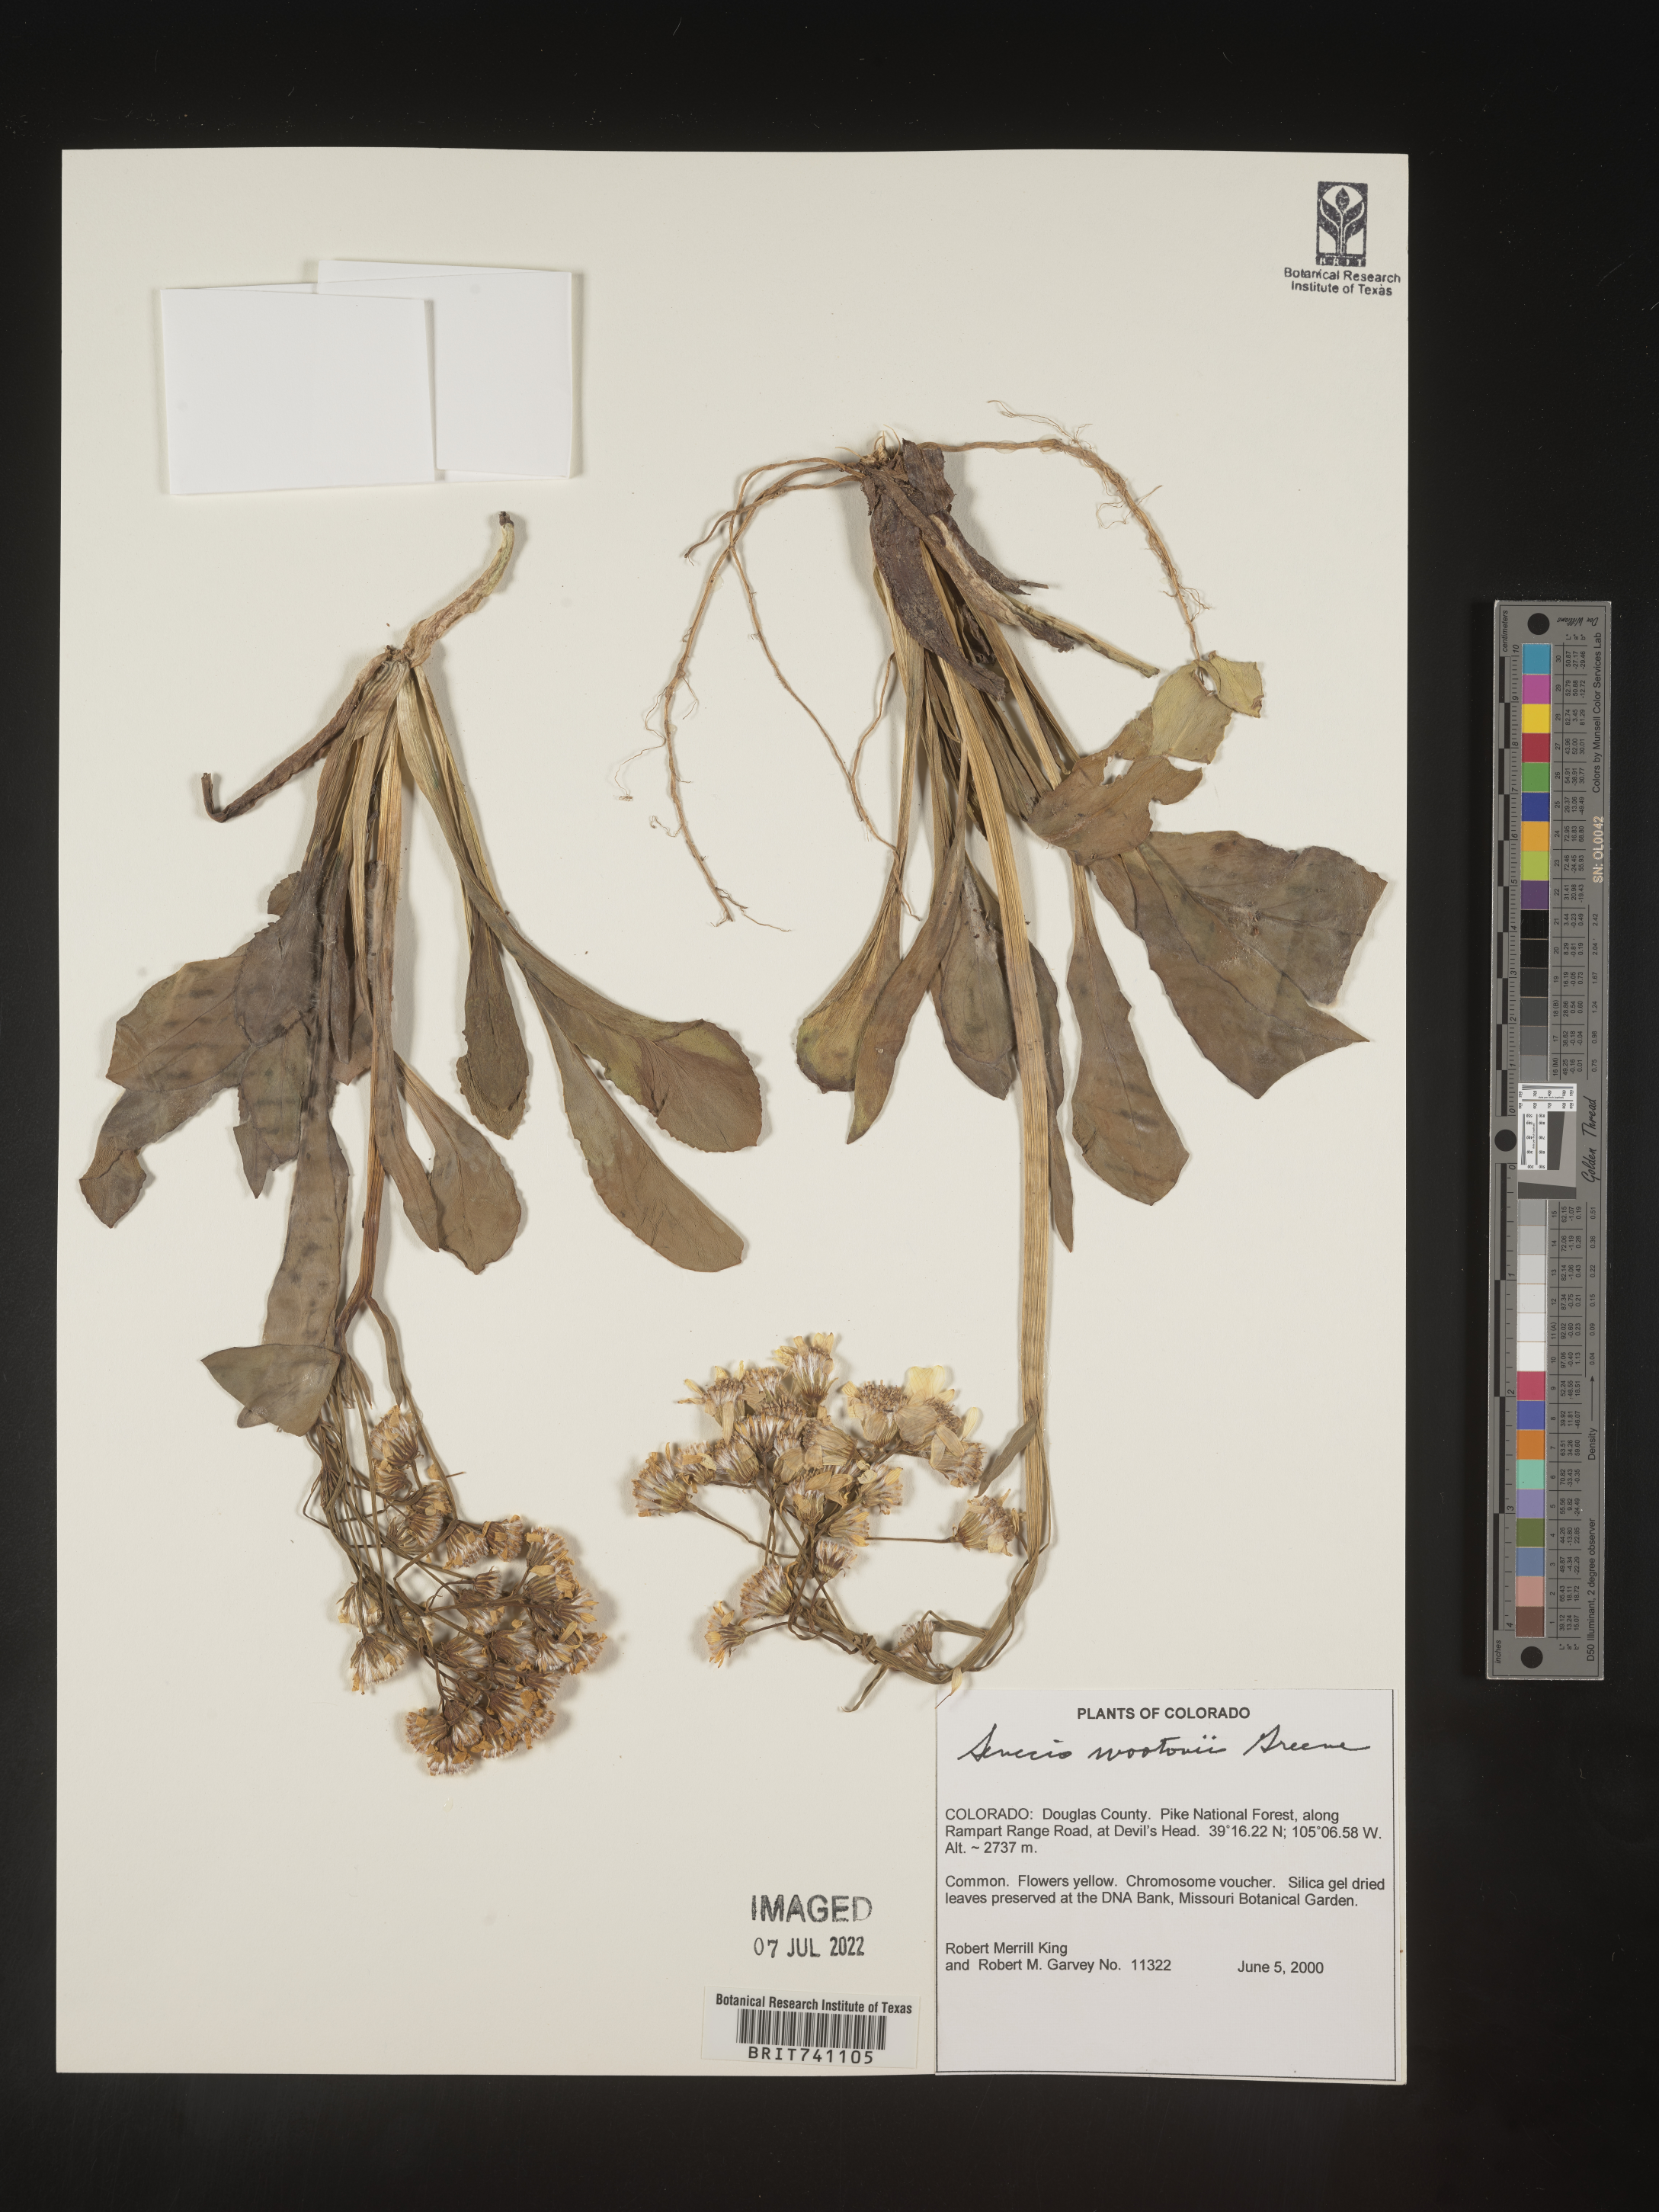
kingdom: Plantae
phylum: Tracheophyta
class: Magnoliopsida
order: Asterales
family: Asteraceae
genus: Senecio
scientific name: Senecio wootonii
